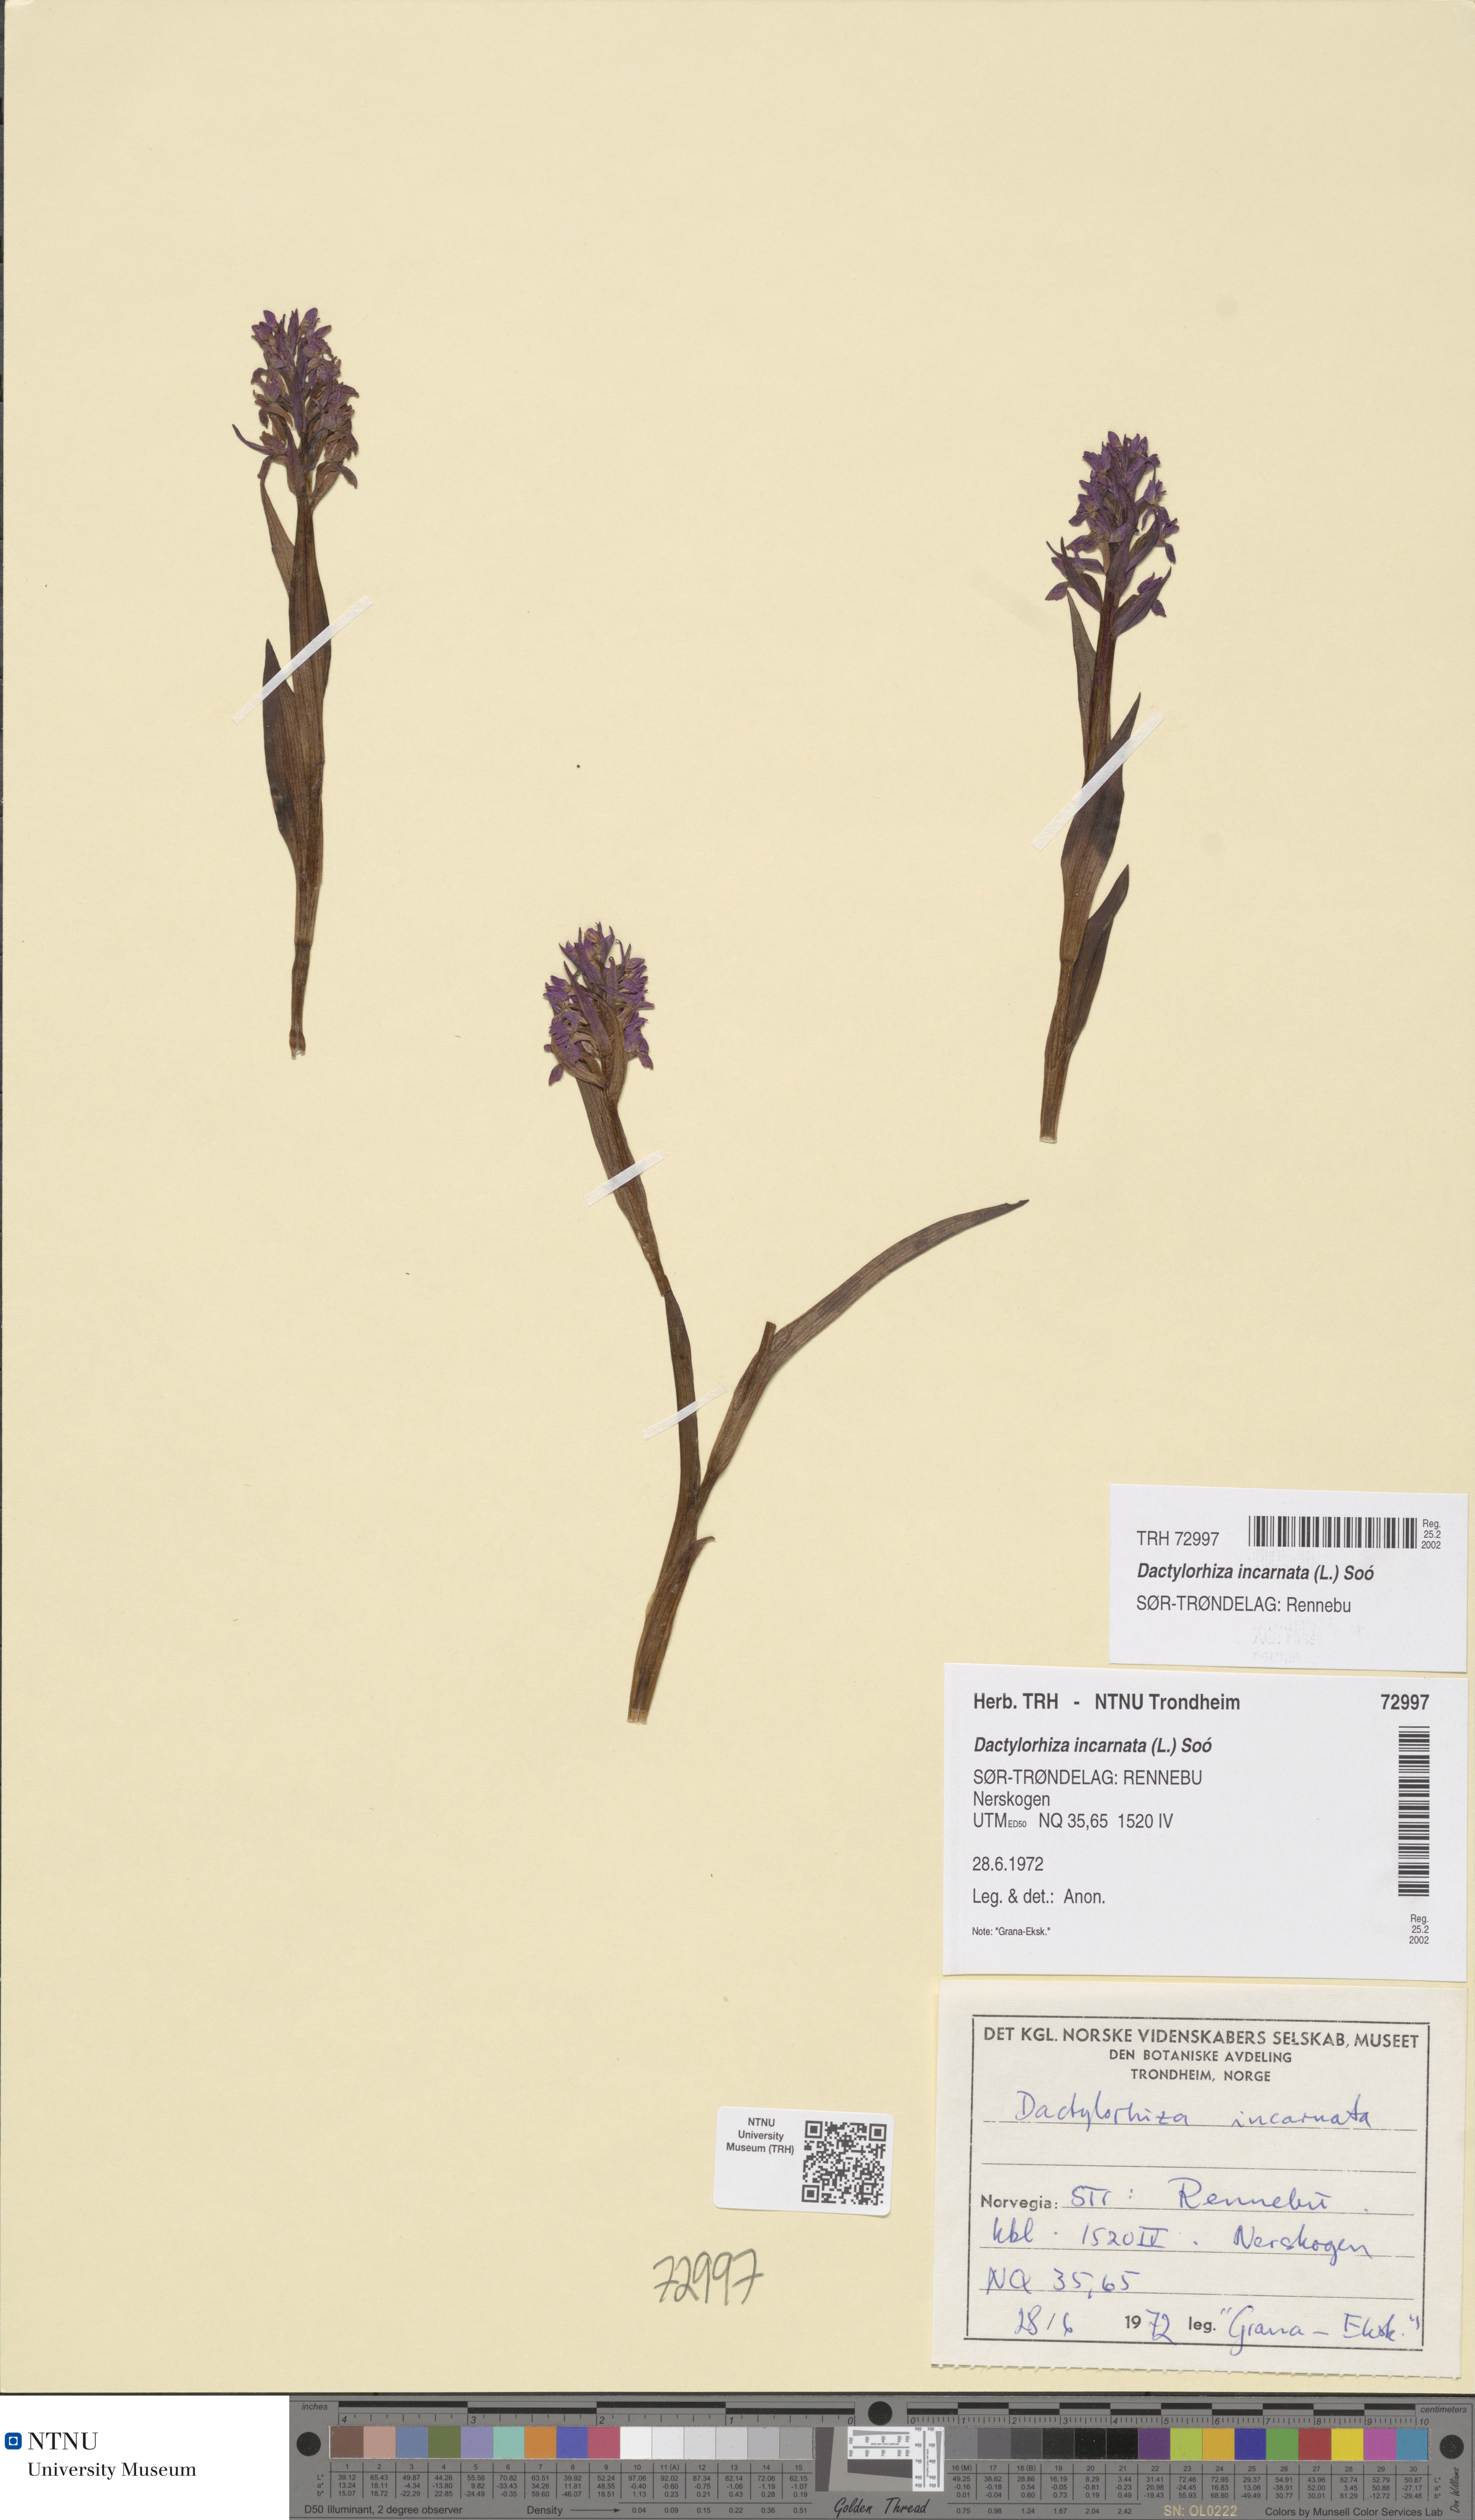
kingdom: Plantae
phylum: Tracheophyta
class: Liliopsida
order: Asparagales
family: Orchidaceae
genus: Dactylorhiza
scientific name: Dactylorhiza incarnata
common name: Early marsh-orchid
